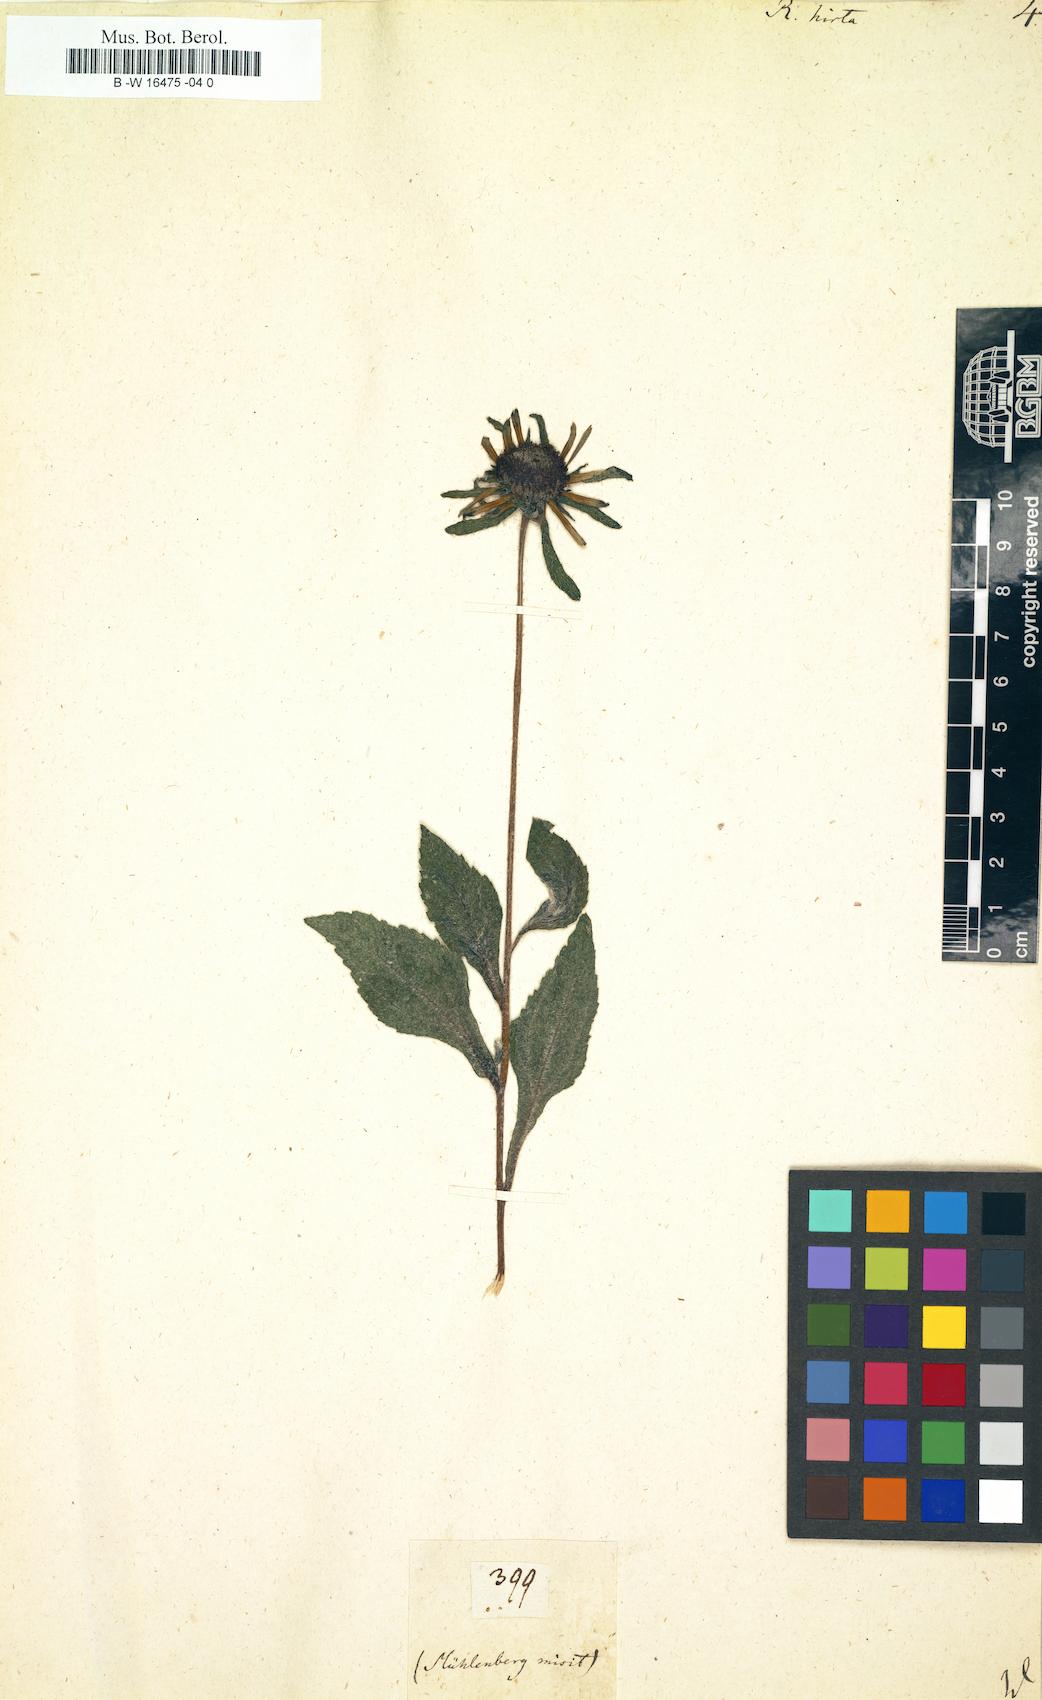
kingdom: Plantae
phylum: Tracheophyta
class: Magnoliopsida
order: Asterales
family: Asteraceae
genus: Rudbeckia
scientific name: Rudbeckia hirta
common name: Black-eyed-susan
